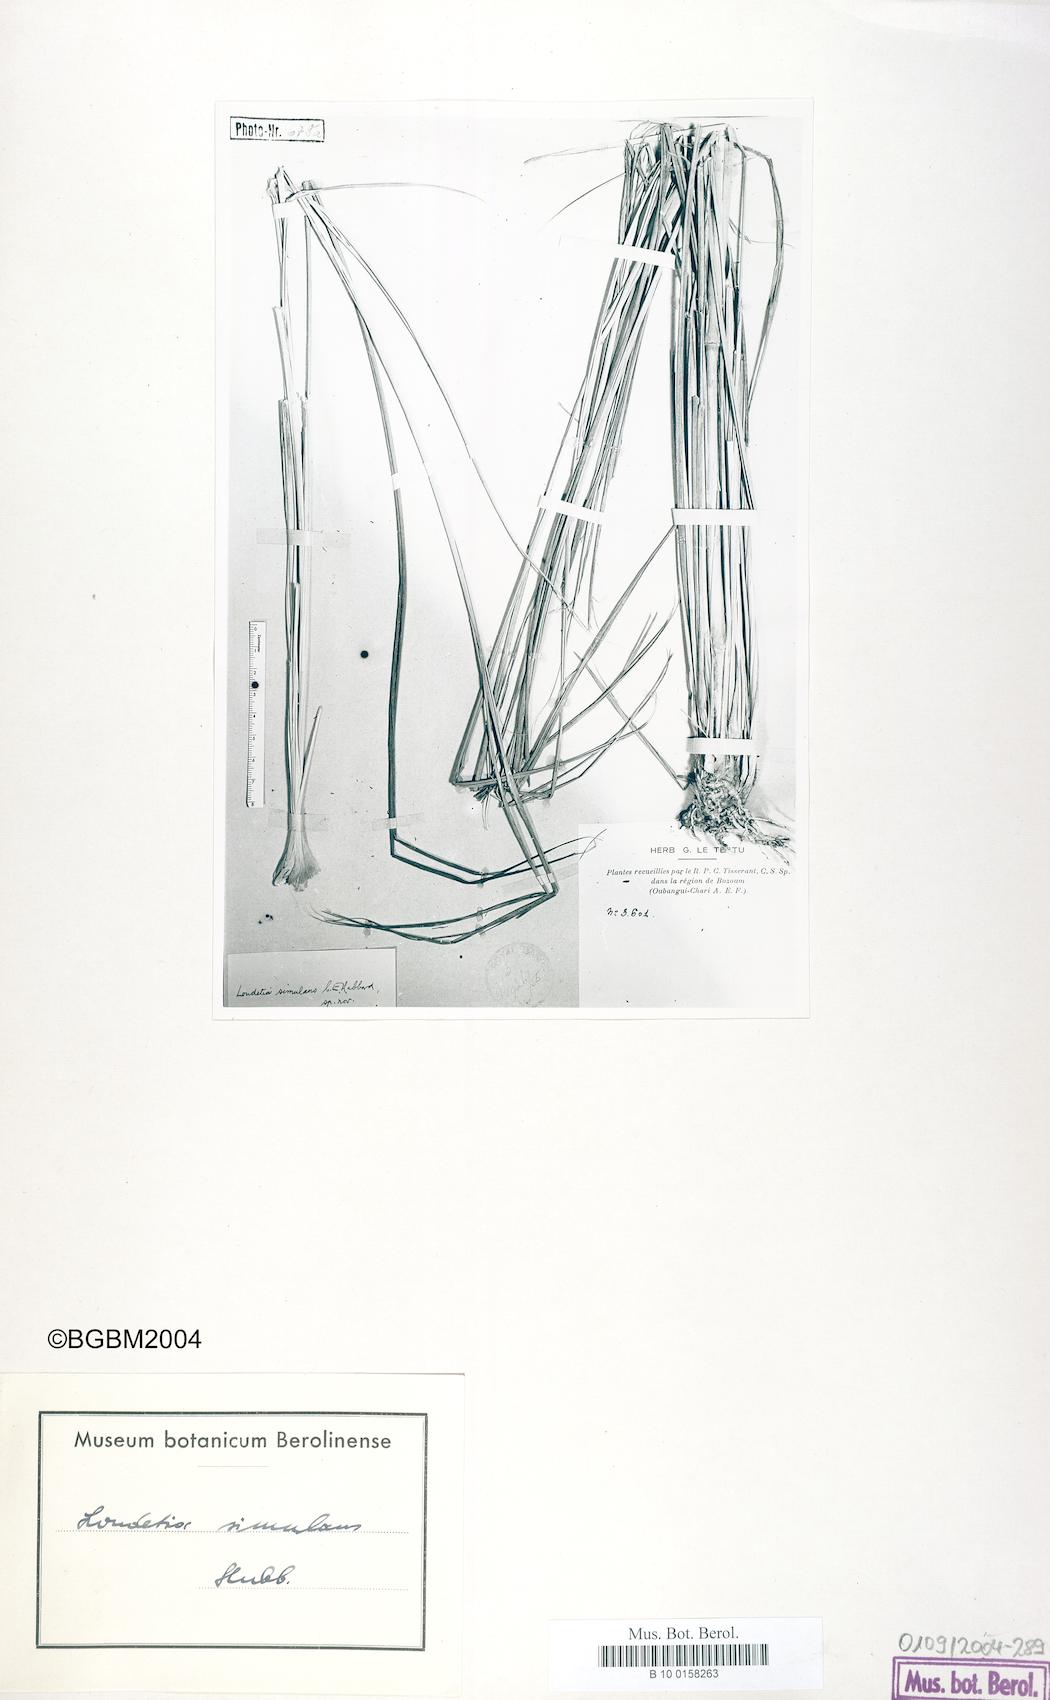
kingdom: Plantae
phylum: Tracheophyta
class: Liliopsida
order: Poales
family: Poaceae
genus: Loudetia
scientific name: Loudetia simplex
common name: Common russet grass
